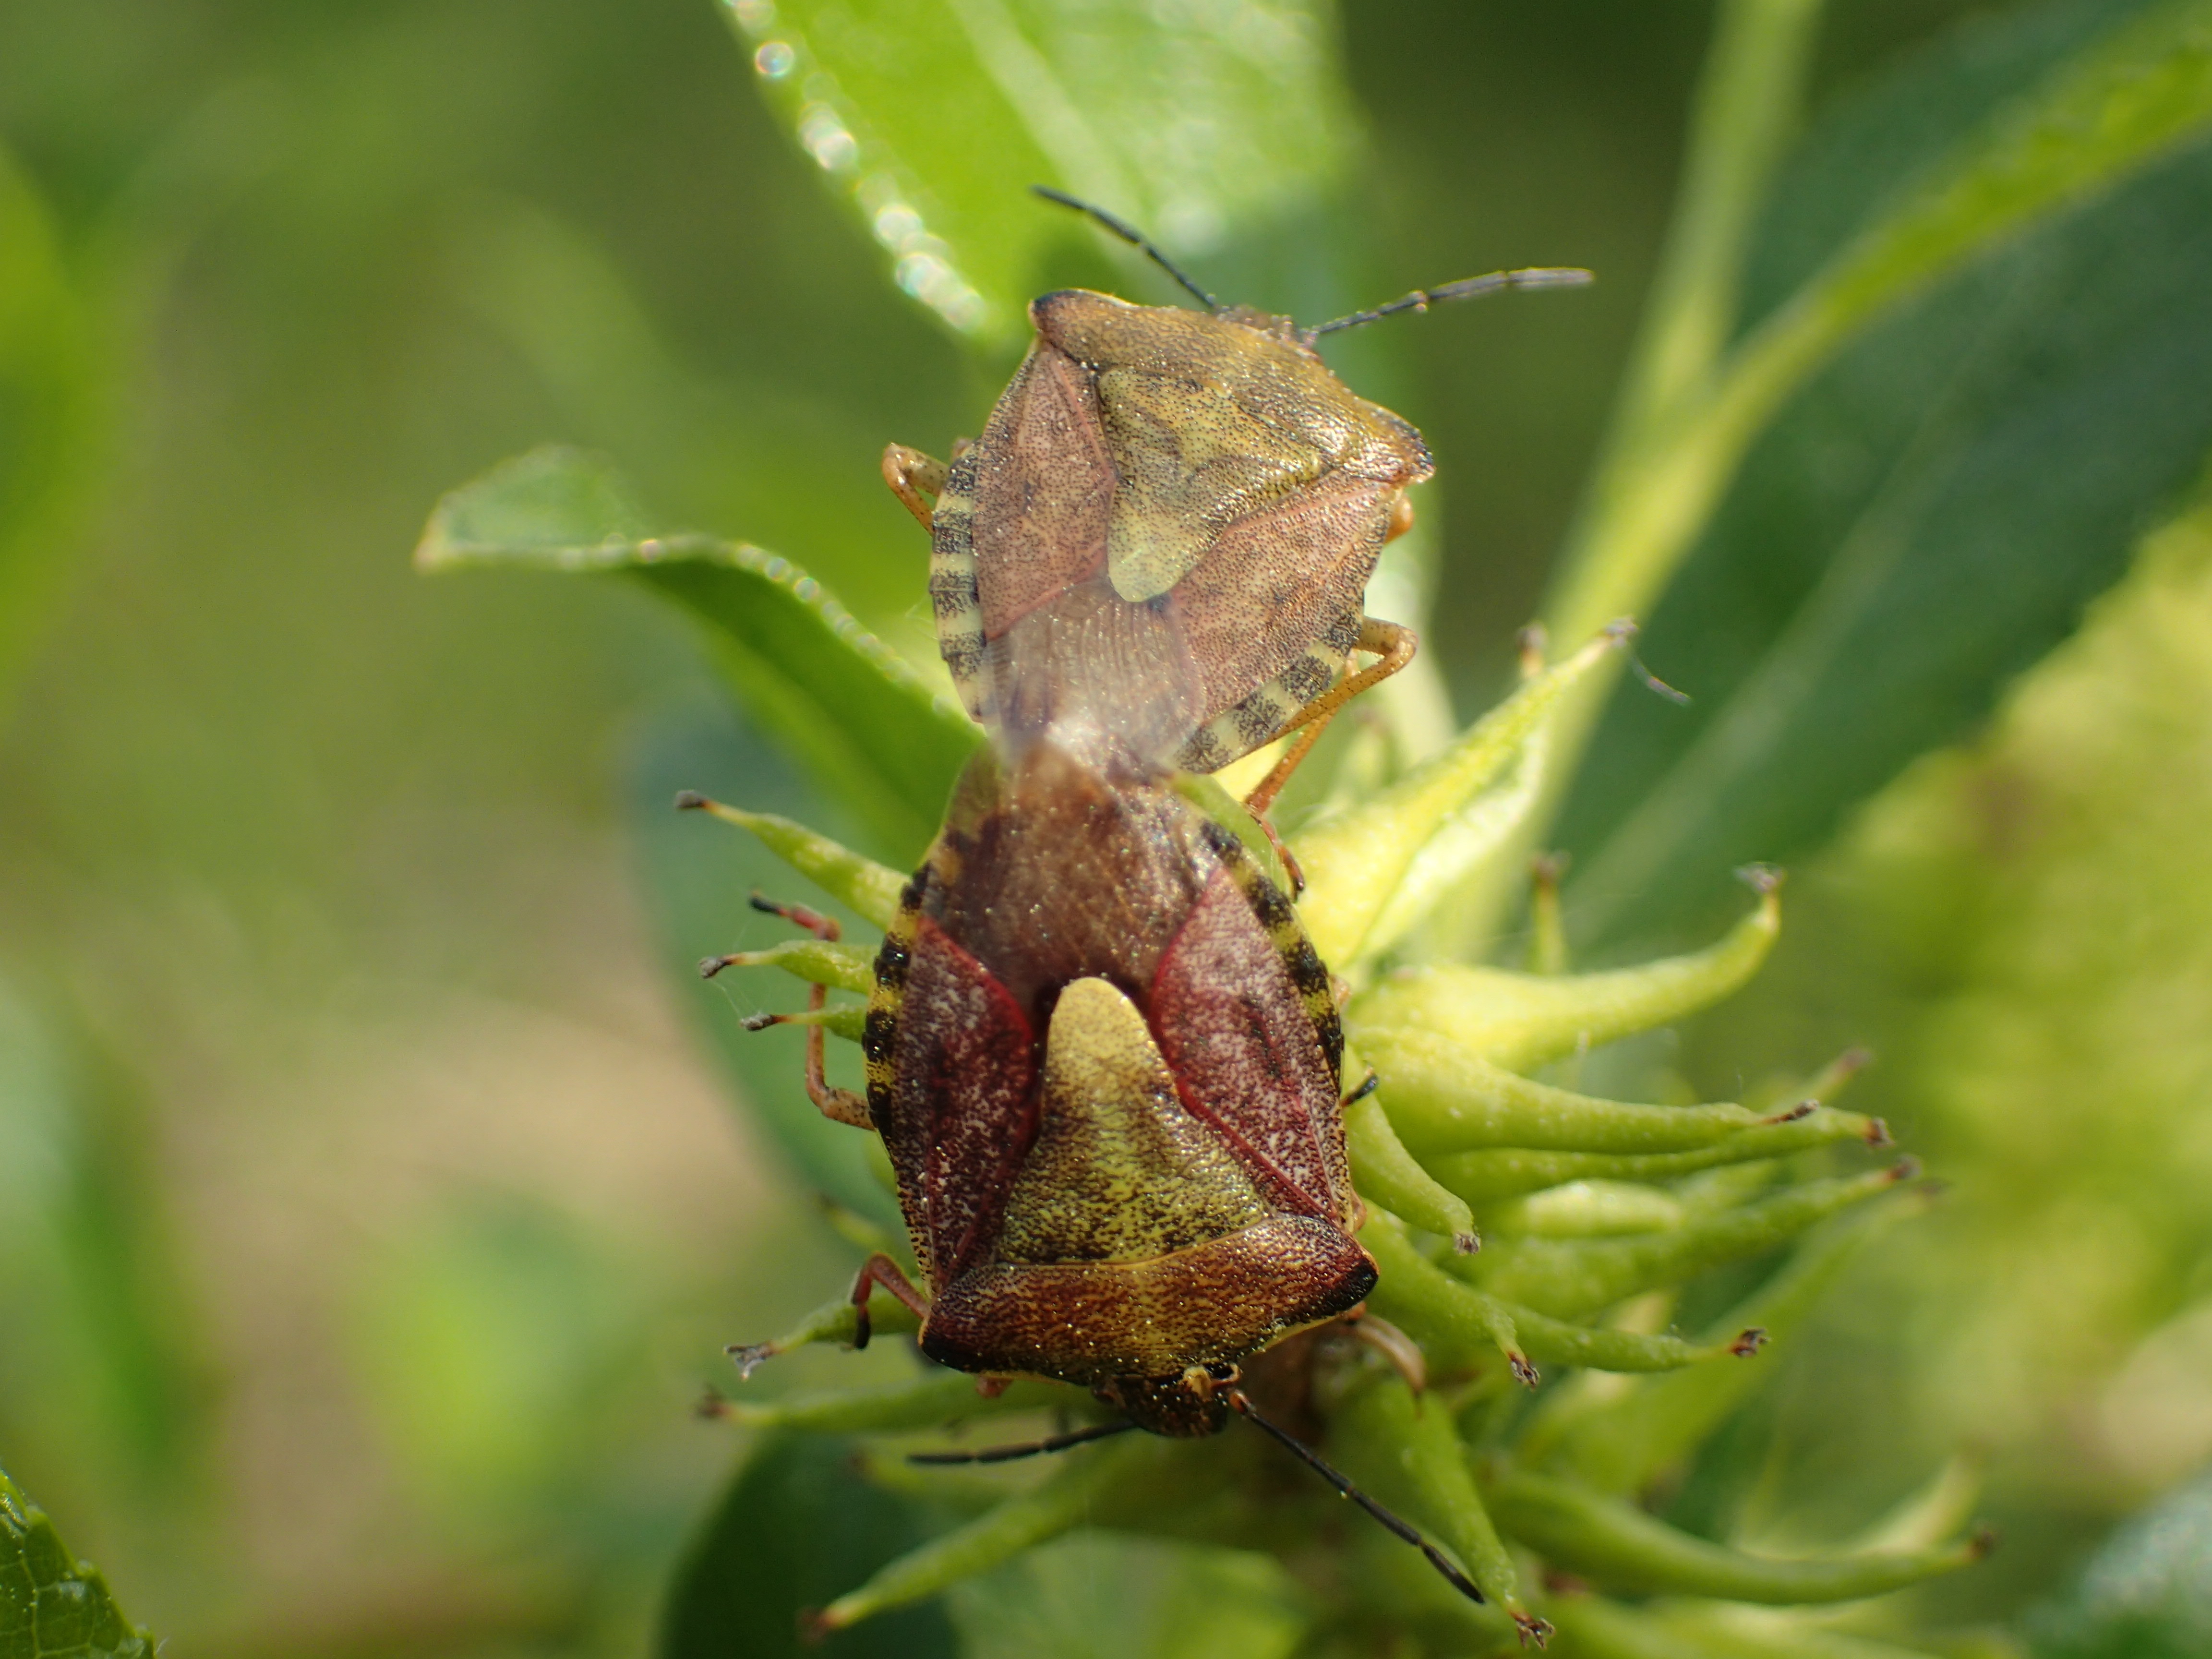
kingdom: Animalia
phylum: Arthropoda
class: Insecta
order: Hemiptera
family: Pentatomidae
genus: Carpocoris
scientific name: Carpocoris purpureipennis
